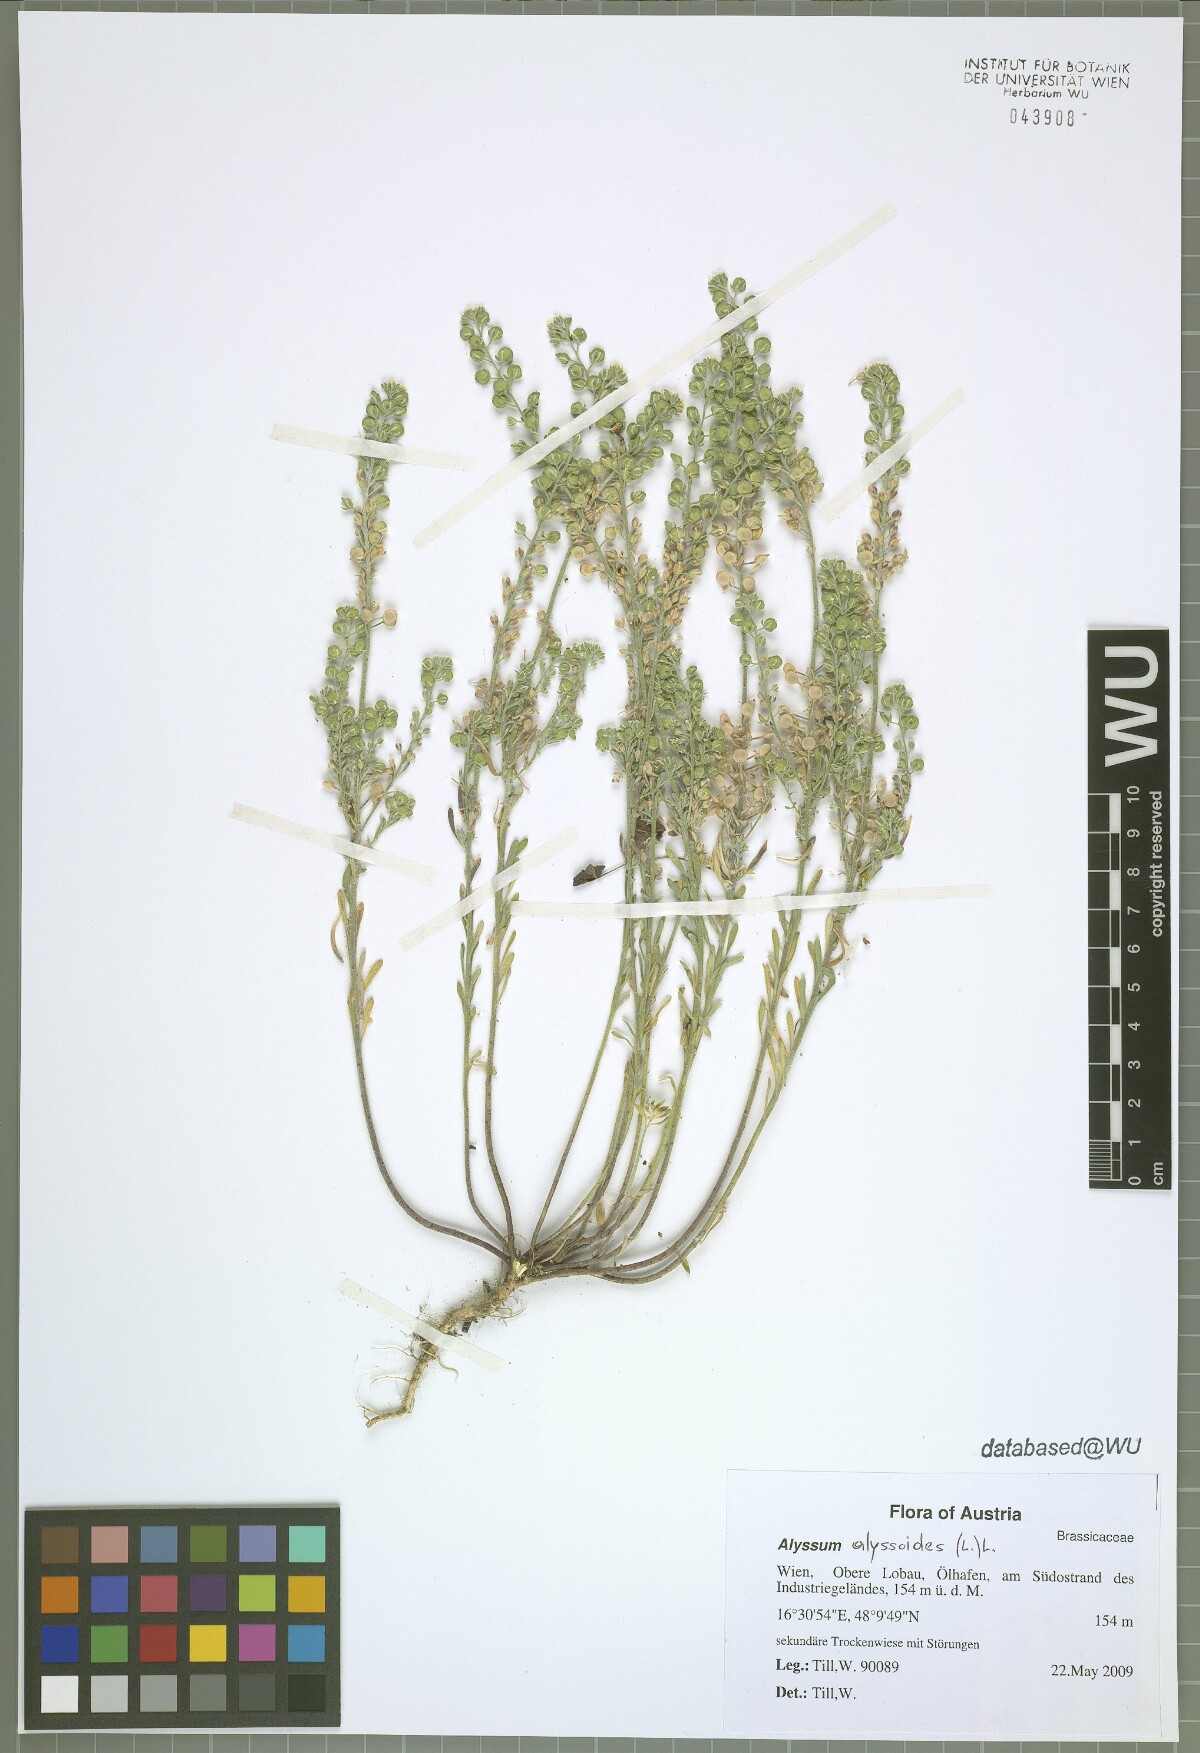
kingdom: Plantae
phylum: Tracheophyta
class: Magnoliopsida
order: Brassicales
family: Brassicaceae
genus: Alyssum
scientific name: Alyssum alyssoides
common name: Small alison
